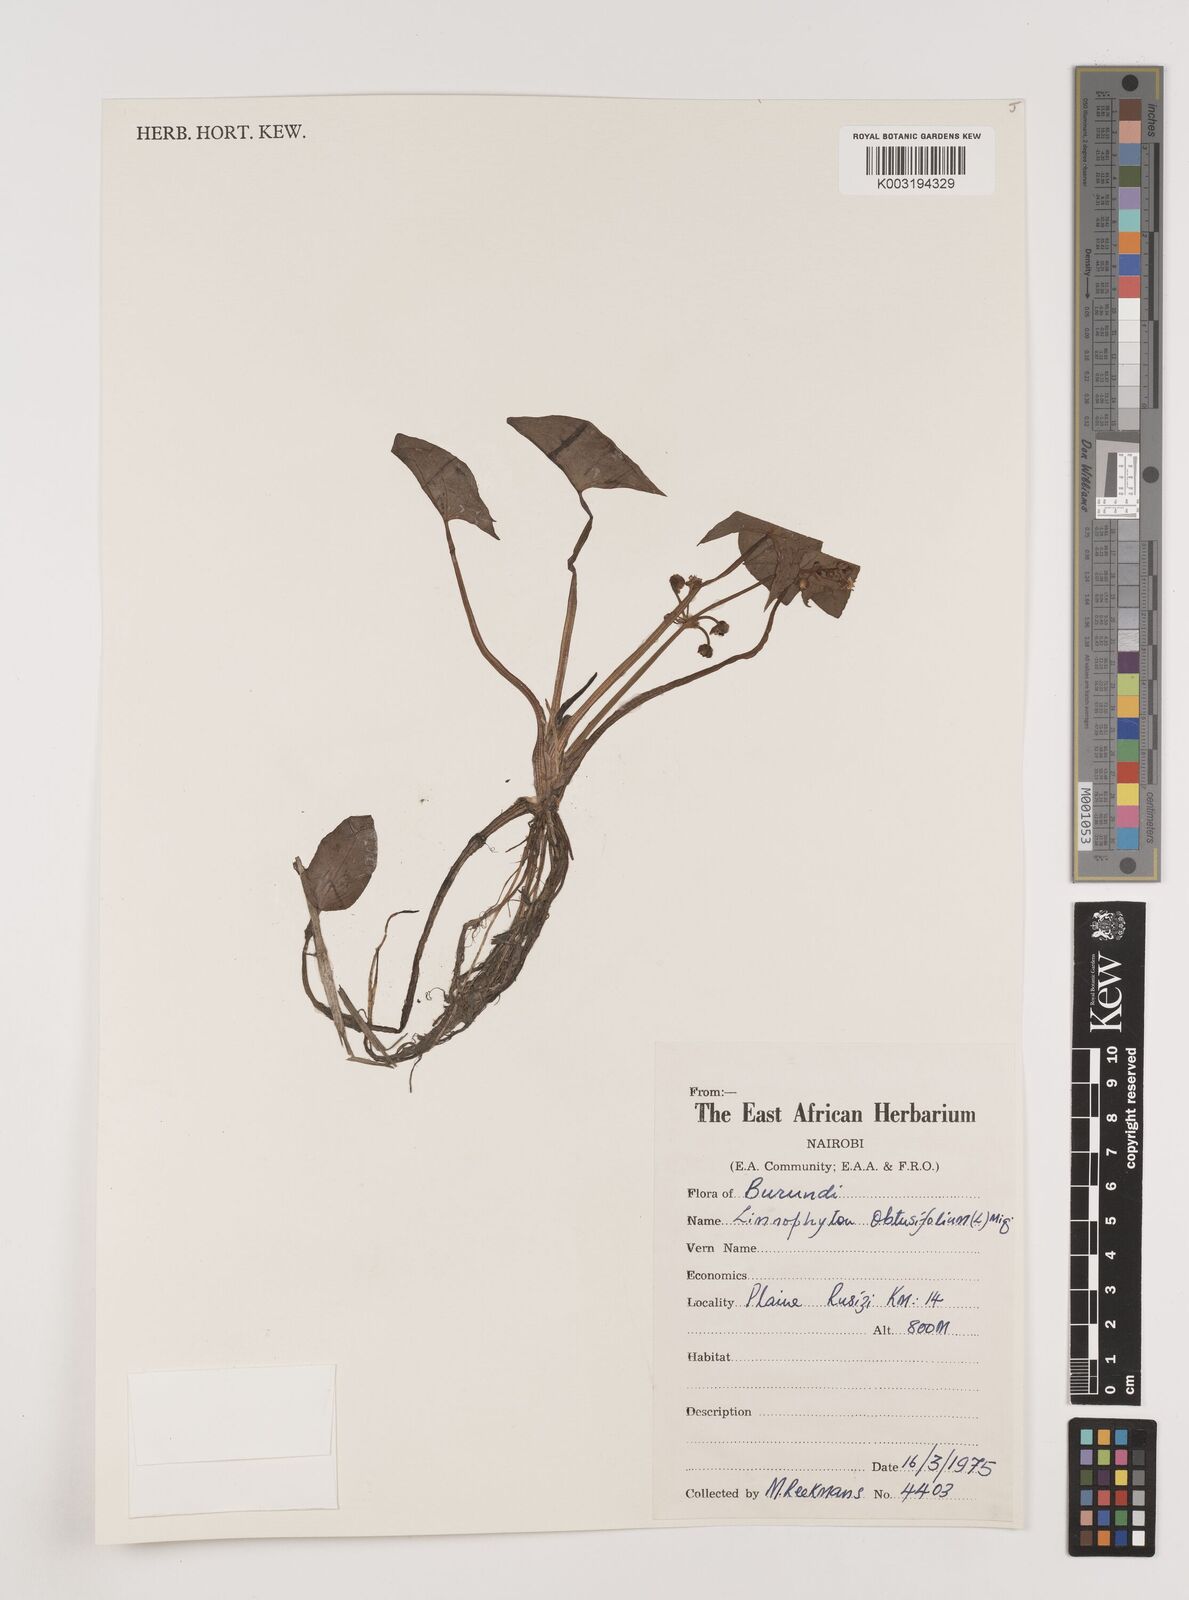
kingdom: Plantae
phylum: Tracheophyta
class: Liliopsida
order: Alismatales
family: Alismataceae
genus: Limnophyton
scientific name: Limnophyton obtusifolium
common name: Arrow head
